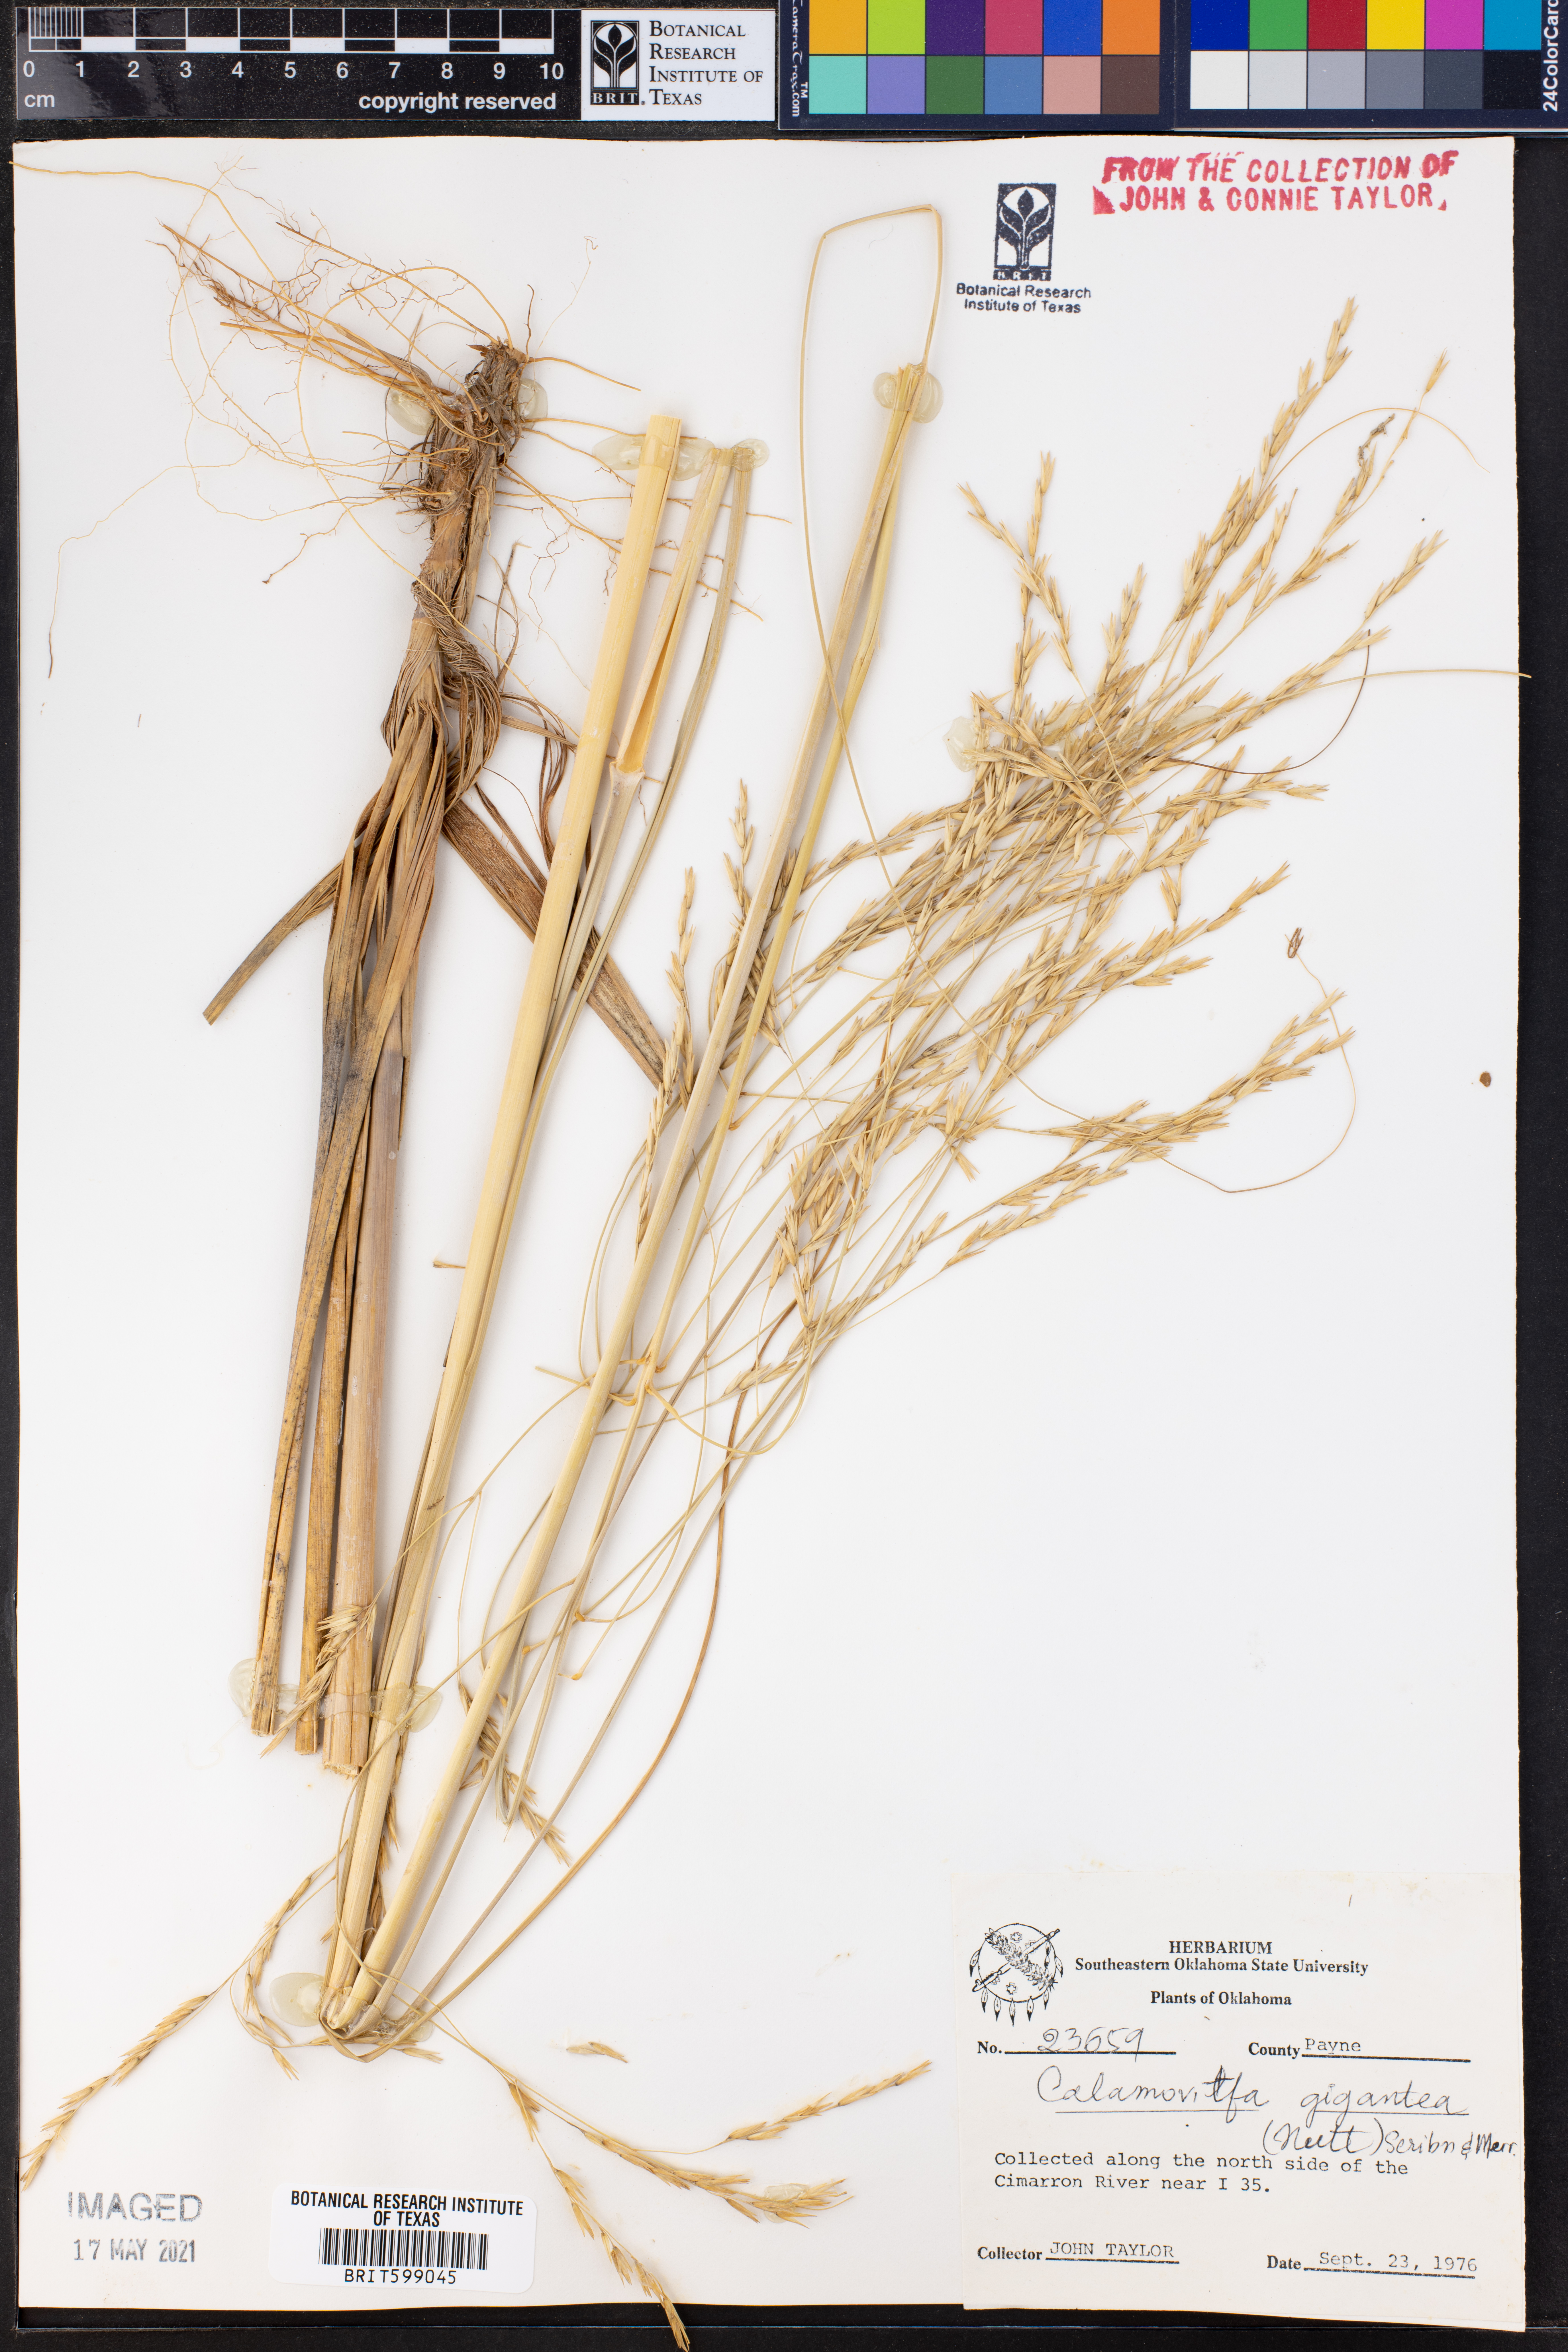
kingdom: Plantae
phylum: Tracheophyta
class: Liliopsida
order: Poales
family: Poaceae
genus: Sporobolus
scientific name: Sporobolus arenicola
